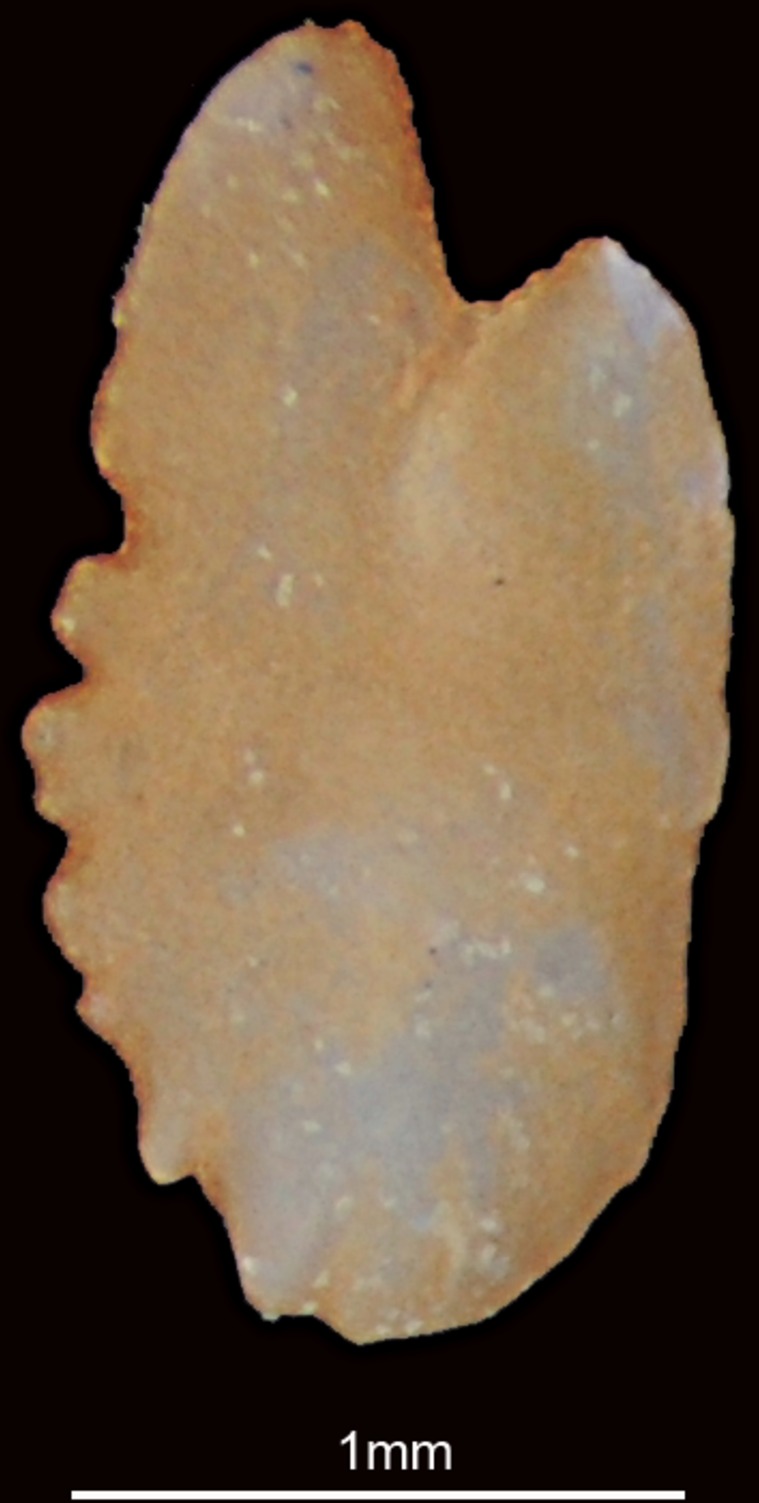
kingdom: Animalia
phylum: Chordata
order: Clupeiformes
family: Clupeidae
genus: Sardinella
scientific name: Sardinella
